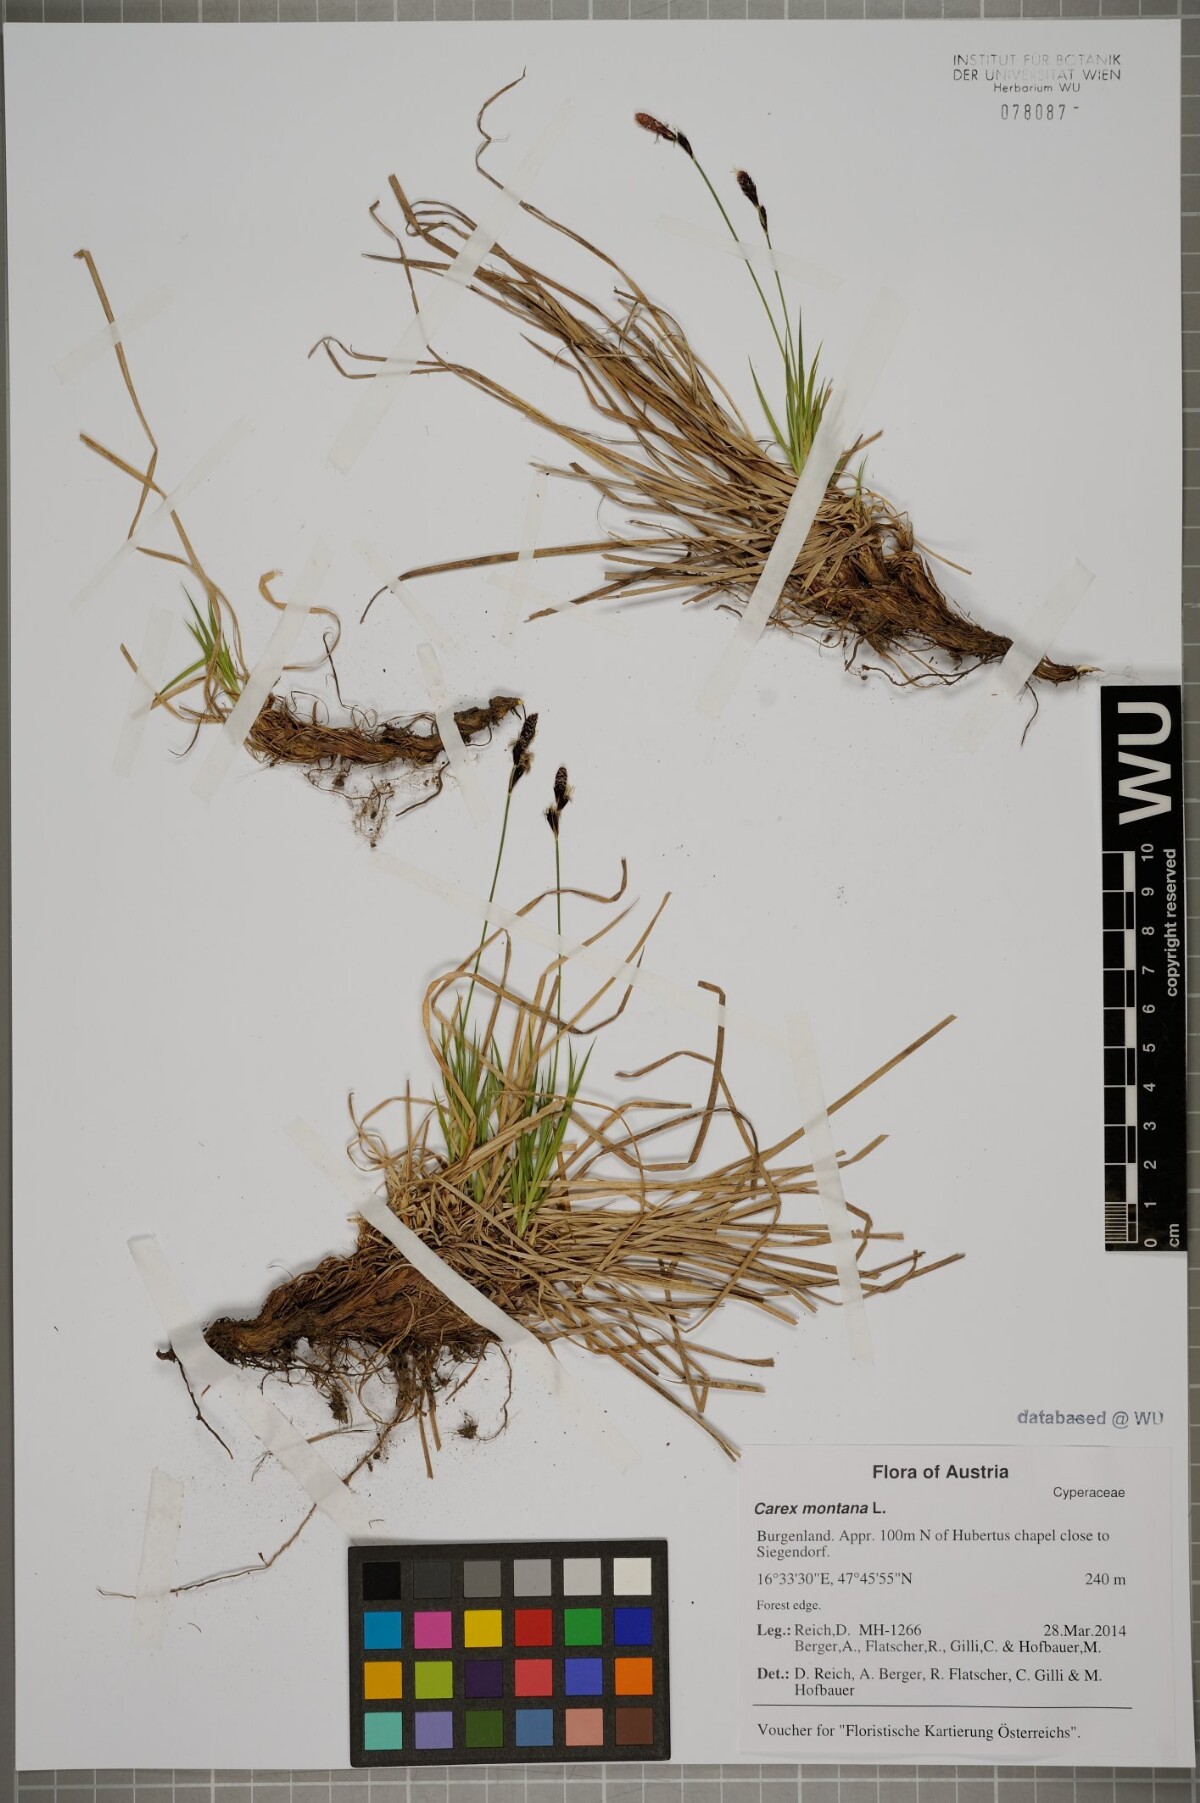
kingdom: Plantae
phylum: Tracheophyta
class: Liliopsida
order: Poales
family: Cyperaceae
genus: Carex
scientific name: Carex montana
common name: Soft-leaved sedge
